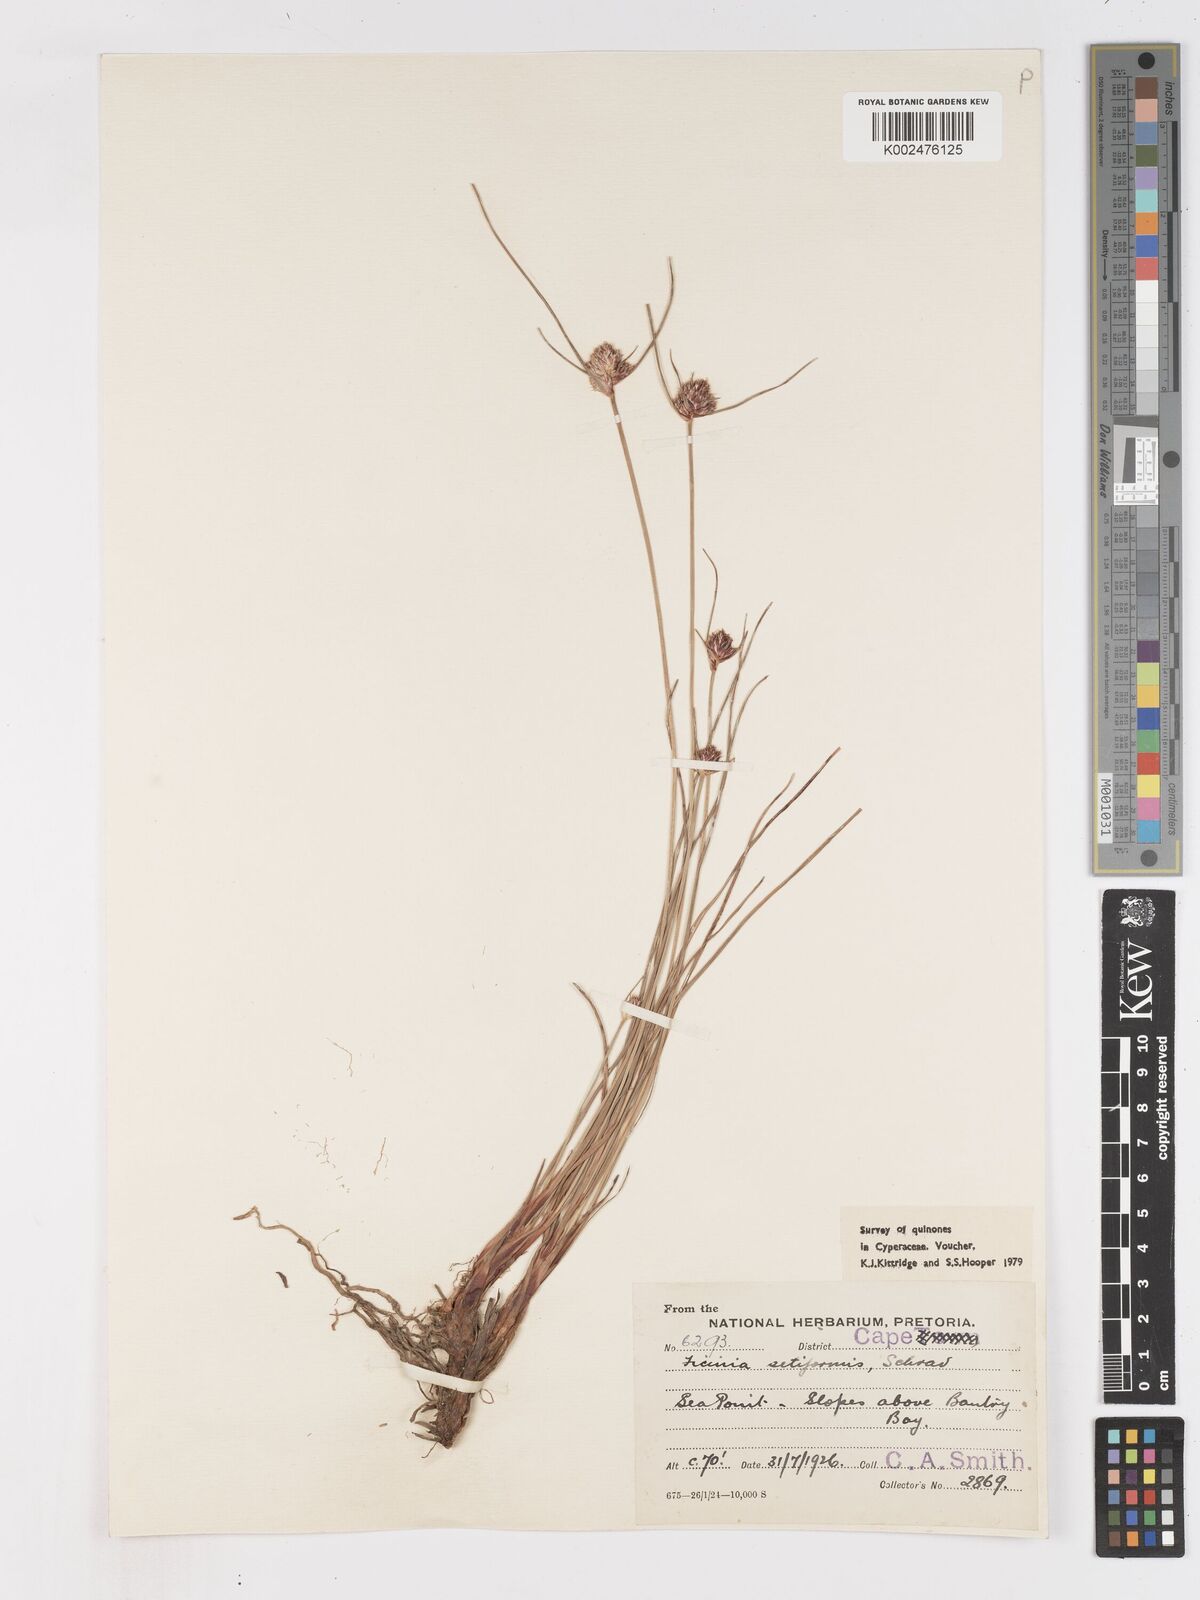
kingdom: Plantae
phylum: Tracheophyta
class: Liliopsida
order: Poales
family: Cyperaceae
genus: Ficinia
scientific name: Ficinia indica
